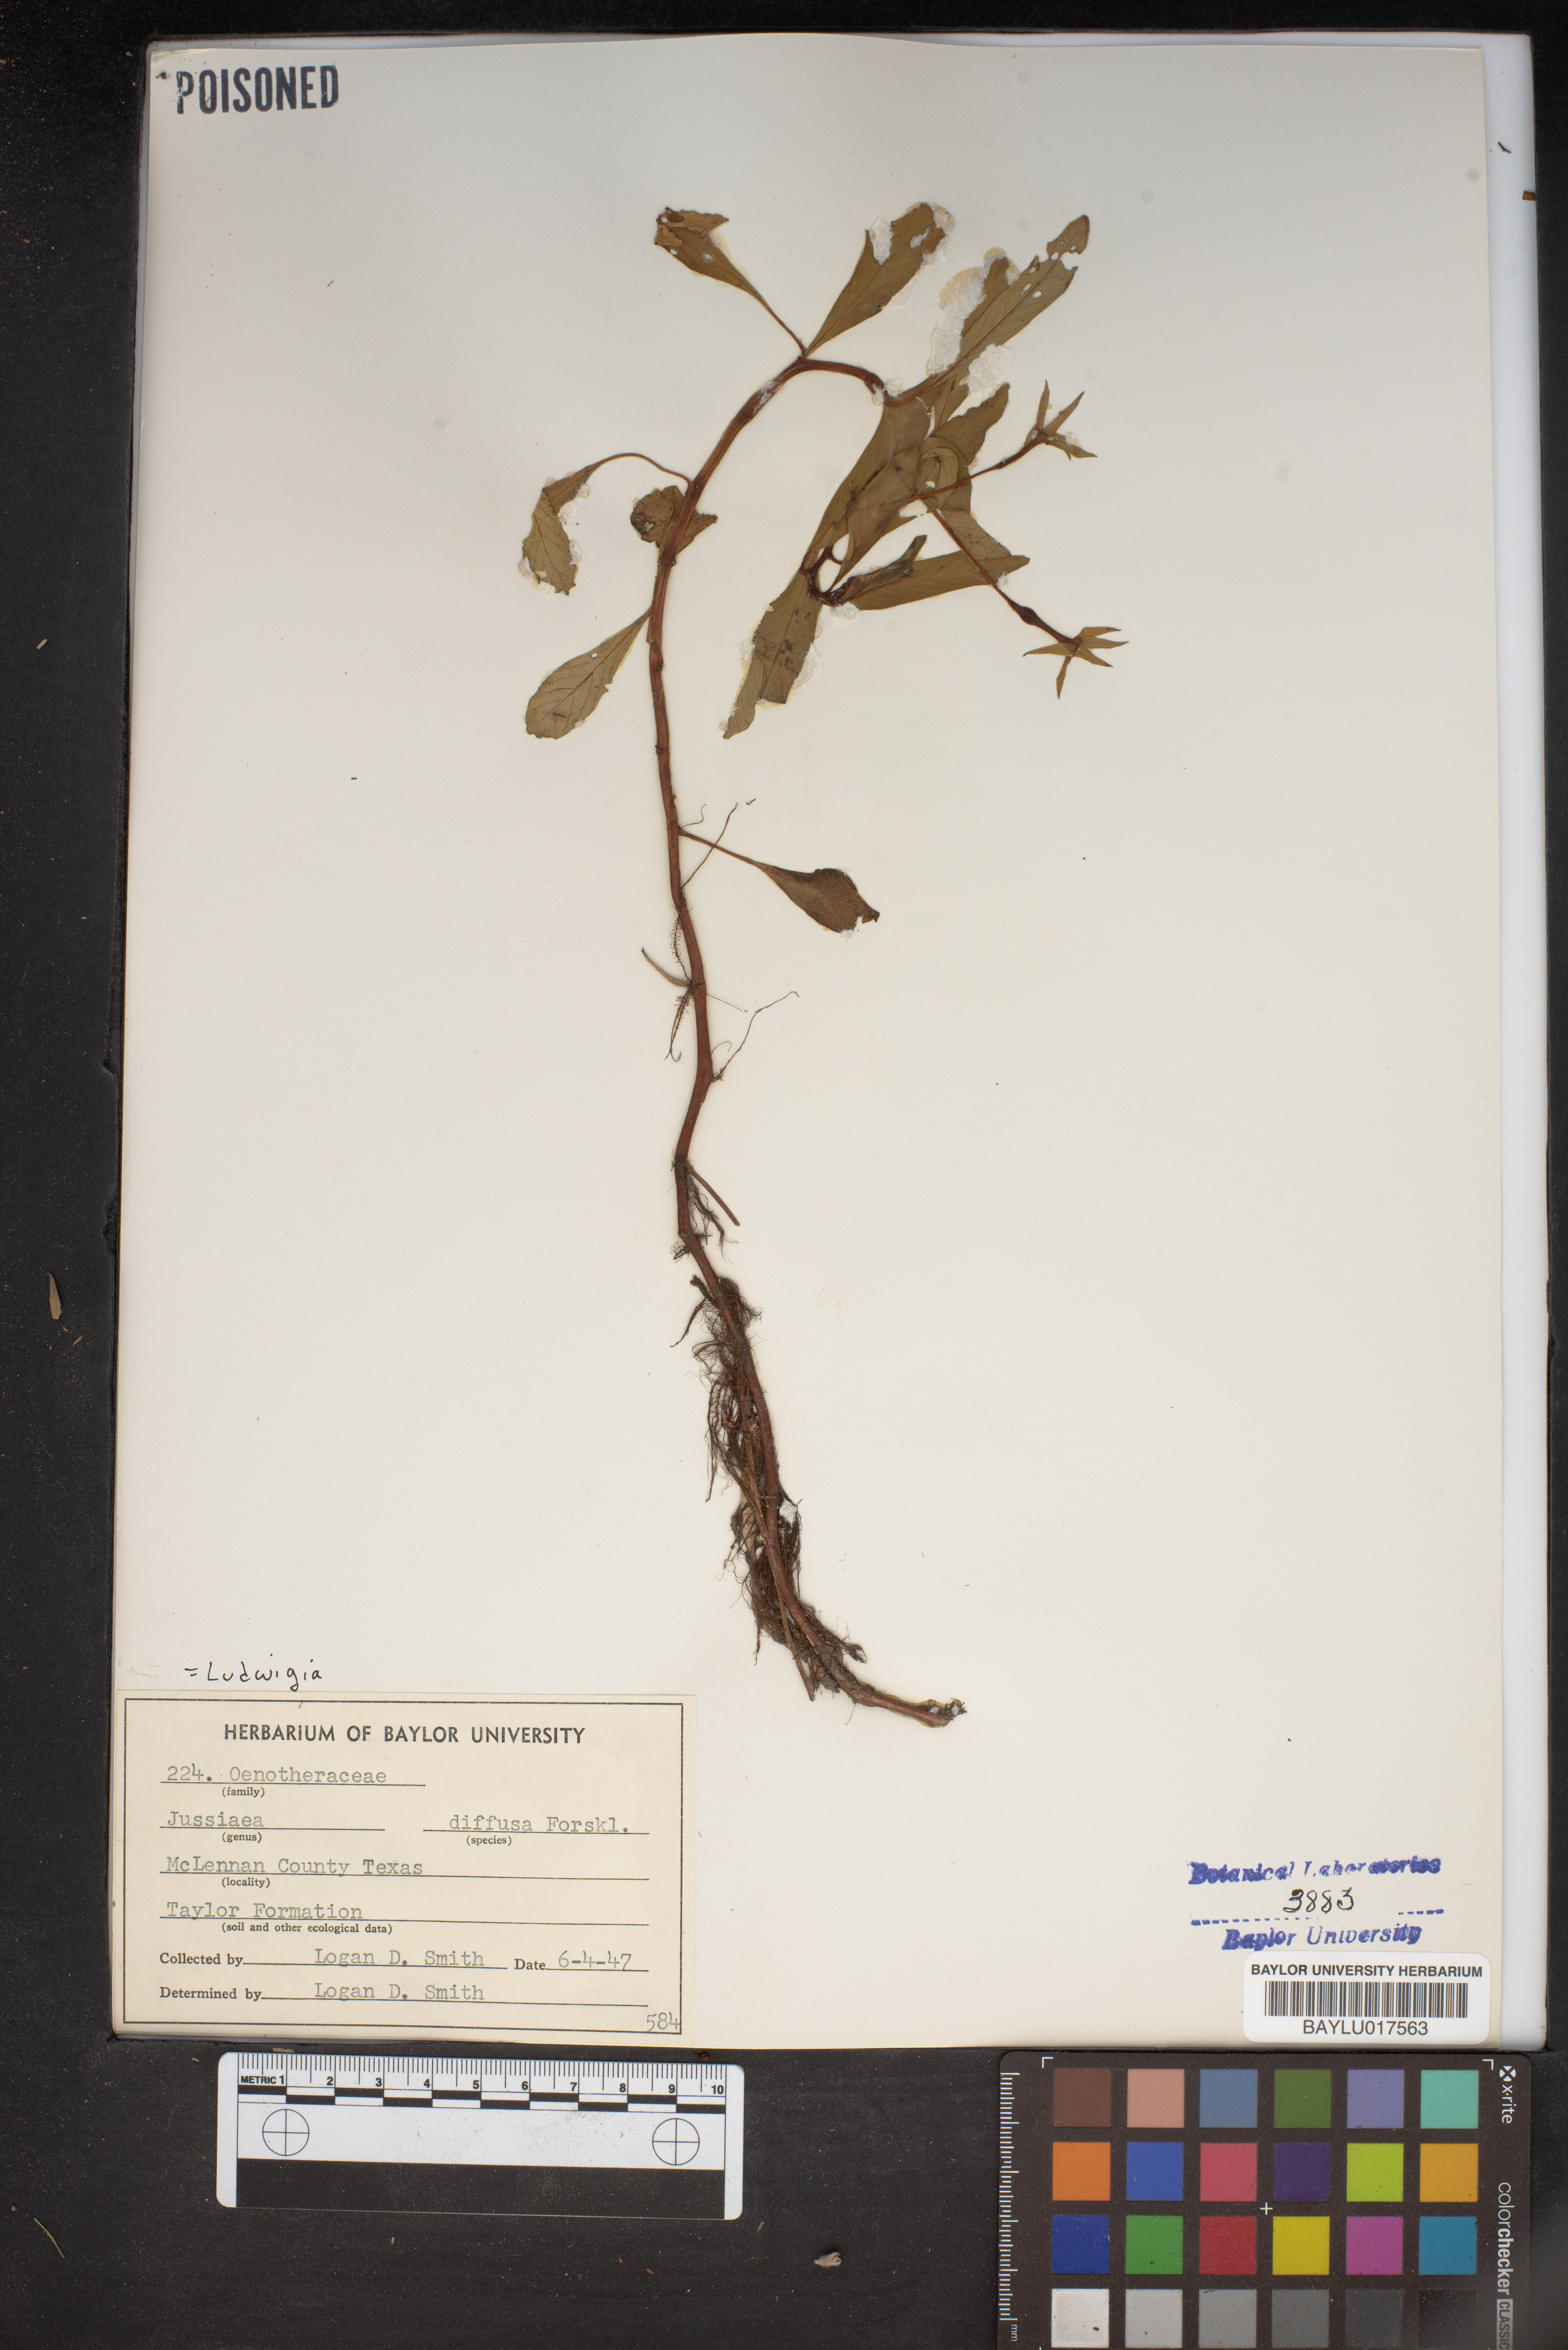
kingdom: Plantae
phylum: Tracheophyta
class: Magnoliopsida
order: Myrtales
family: Onagraceae
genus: Ludwigia
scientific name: Ludwigia adscendens
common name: Creeping water primrose
